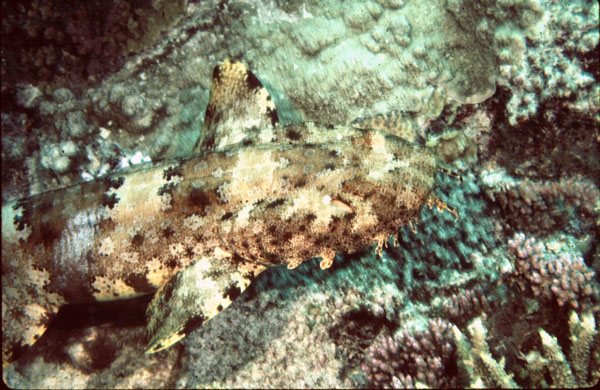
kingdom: Animalia
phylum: Chordata
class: Elasmobranchii
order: Orectolobiformes
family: Orectolobidae
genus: Orectolobus
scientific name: Orectolobus ornatus
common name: Ornate wobbegong
